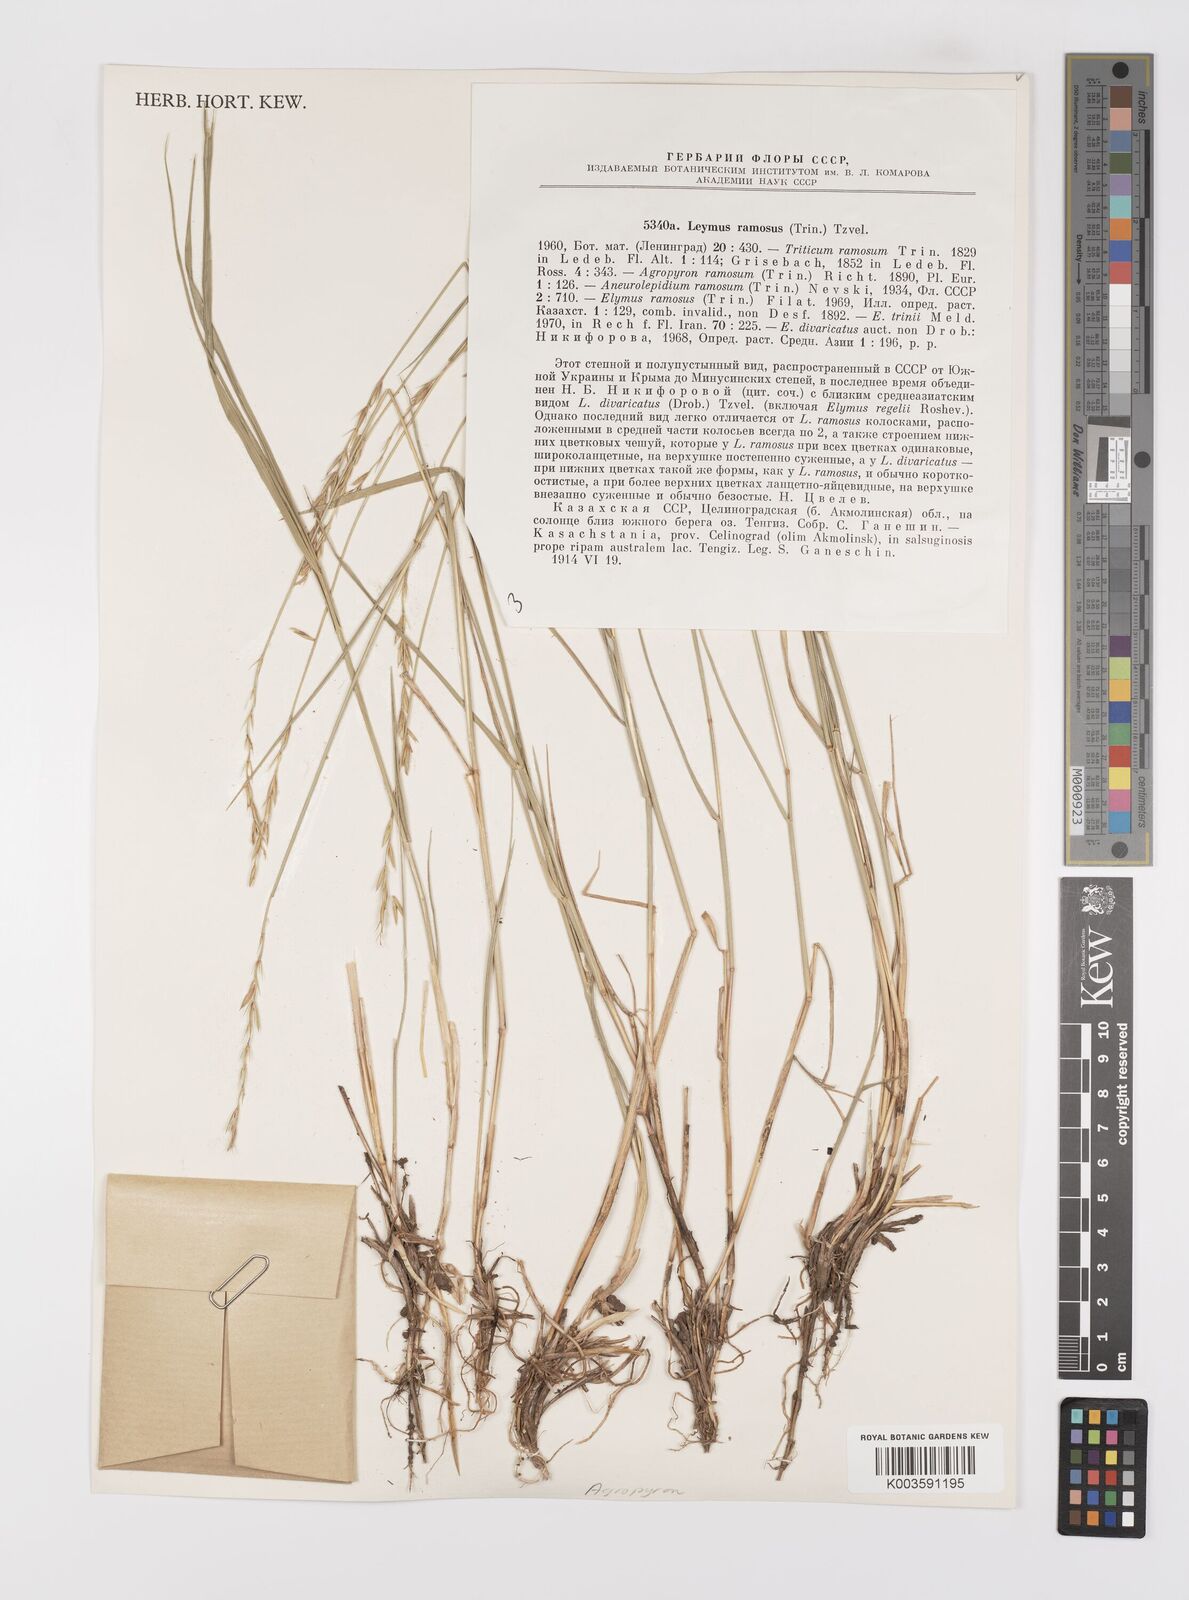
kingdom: Plantae
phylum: Tracheophyta
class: Liliopsida
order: Poales
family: Poaceae
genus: Leymus
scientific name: Leymus ramosus
